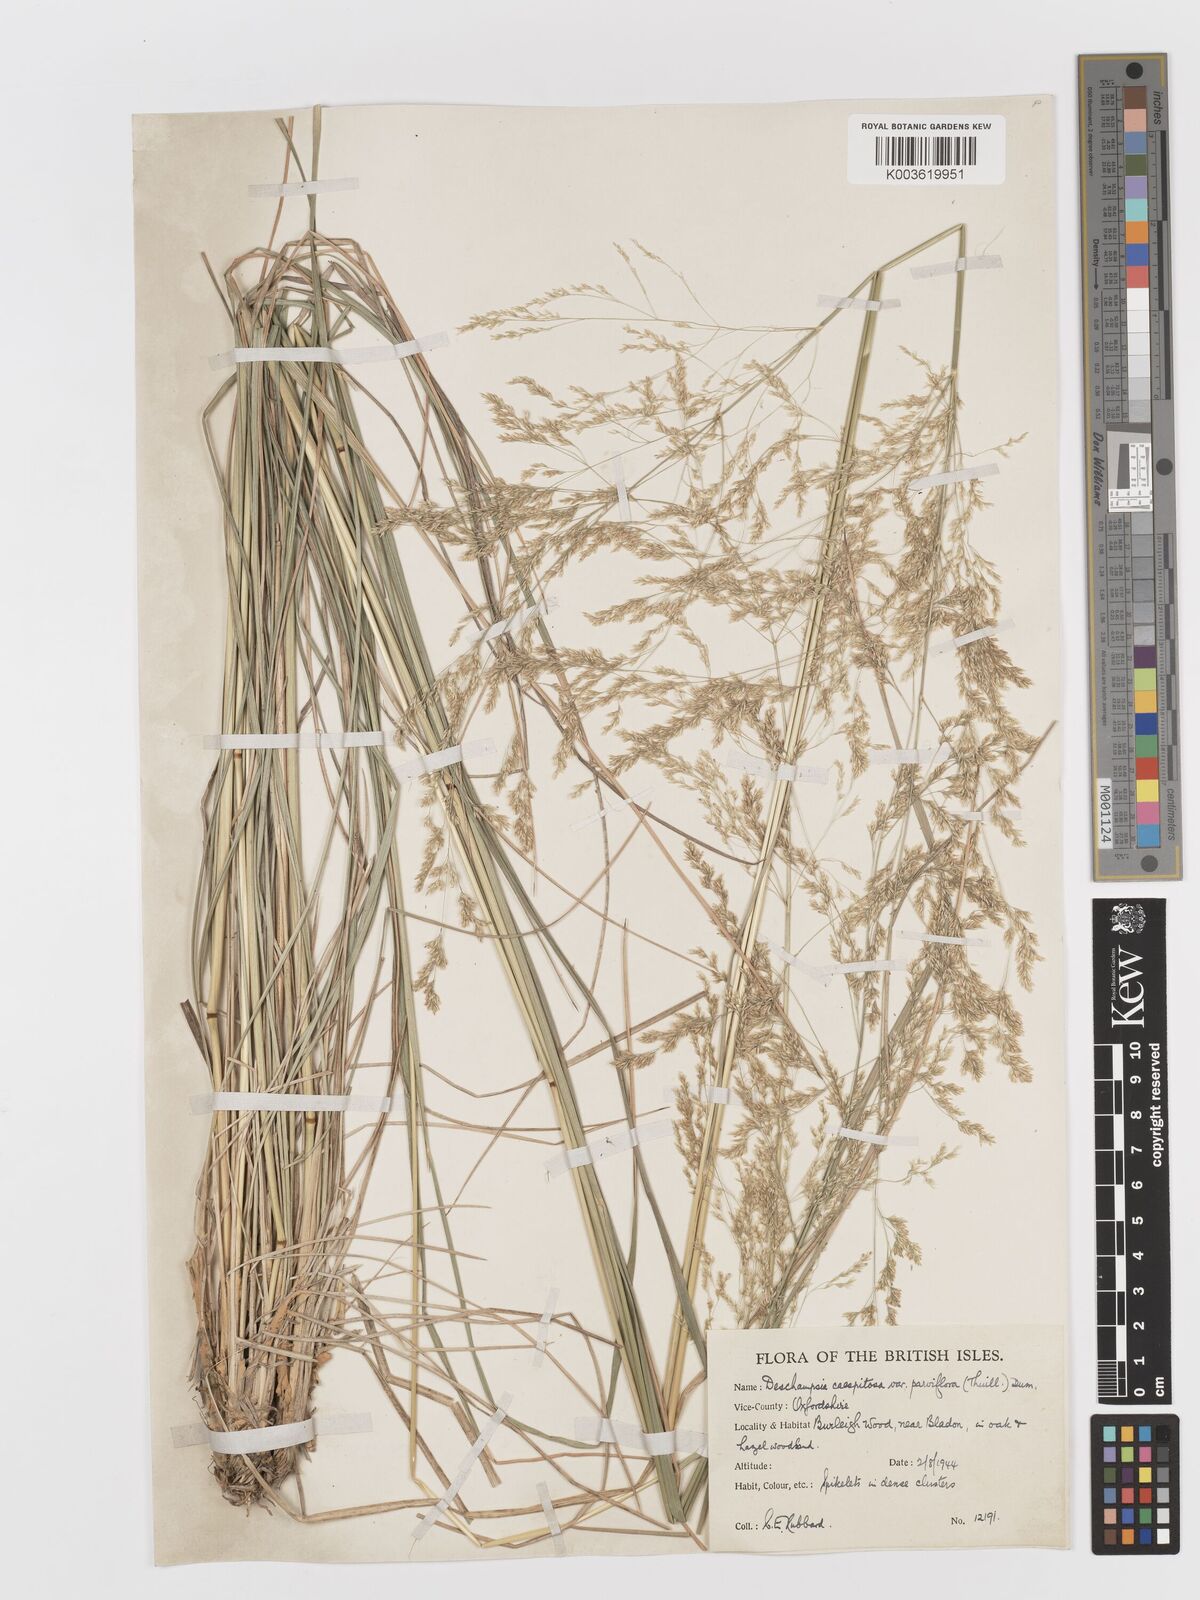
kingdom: Plantae
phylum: Tracheophyta
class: Liliopsida
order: Poales
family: Poaceae
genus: Deschampsia
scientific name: Deschampsia
